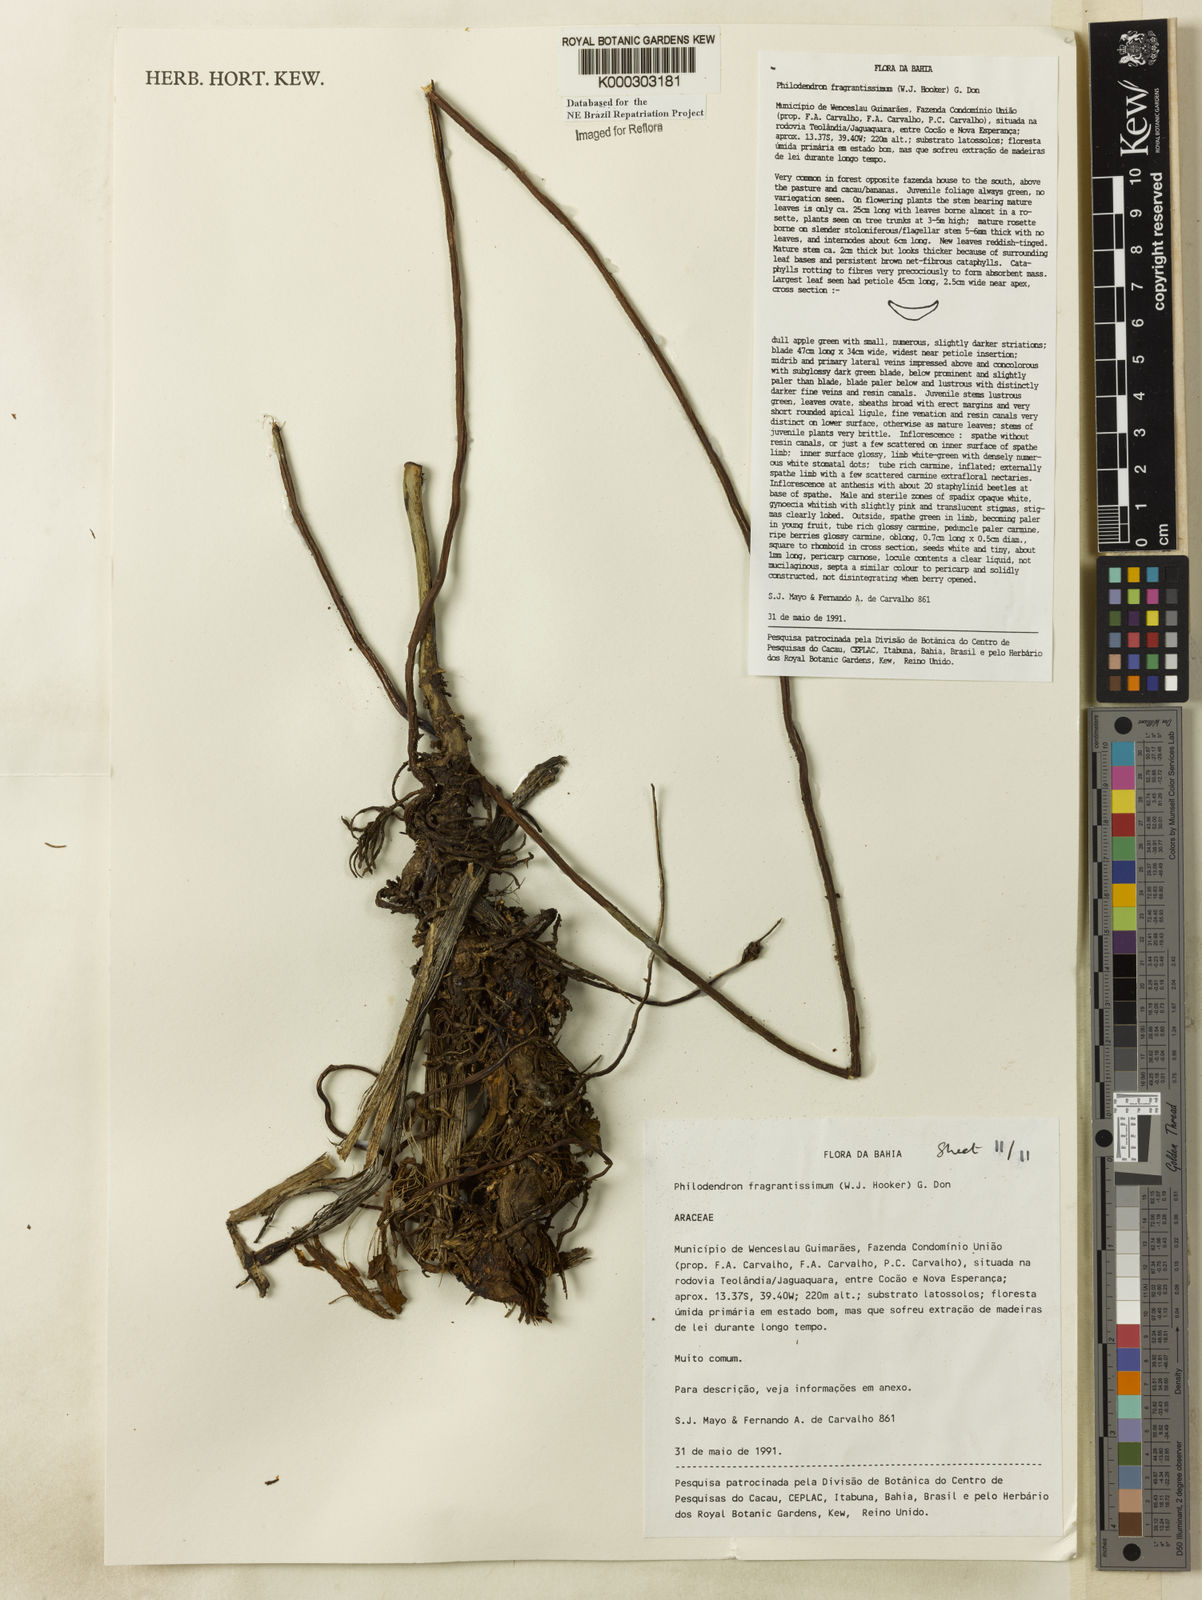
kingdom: Plantae
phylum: Tracheophyta
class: Liliopsida
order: Alismatales
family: Araceae
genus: Philodendron
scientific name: Philodendron fragrantissimum
